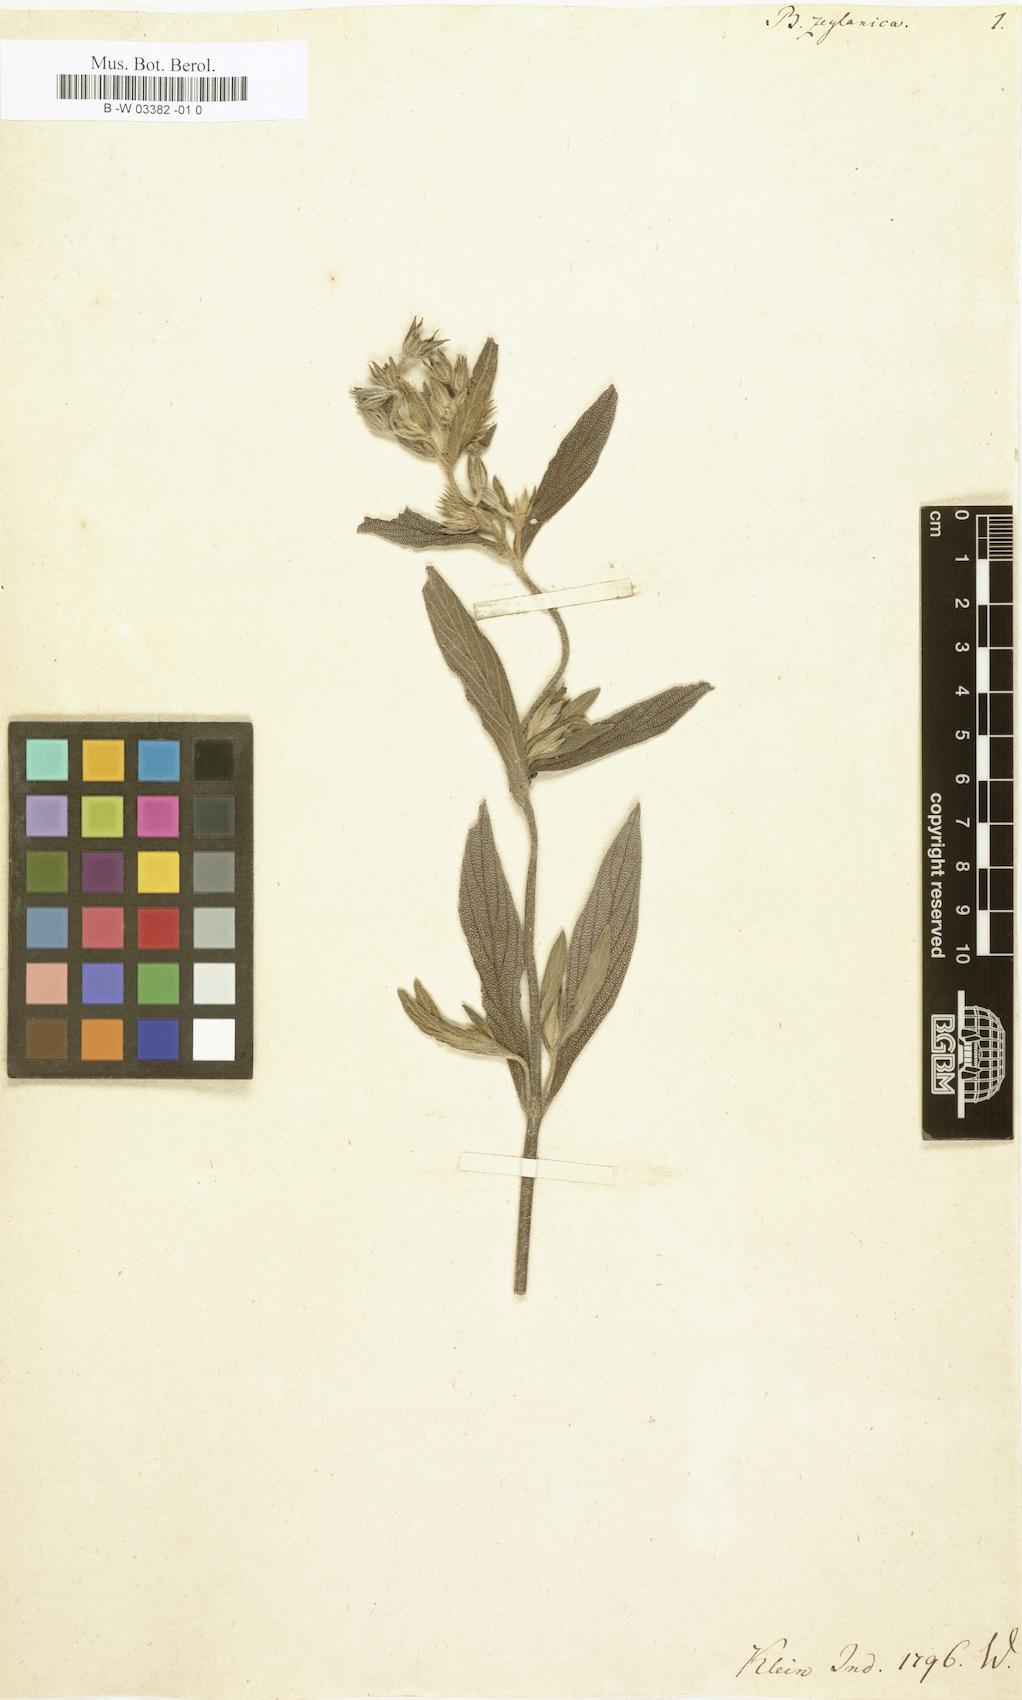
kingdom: Plantae
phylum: Tracheophyta
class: Magnoliopsida
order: Boraginales
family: Boraginaceae
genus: Trichodesma
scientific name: Trichodesma zeylanicum
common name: Camelbush
